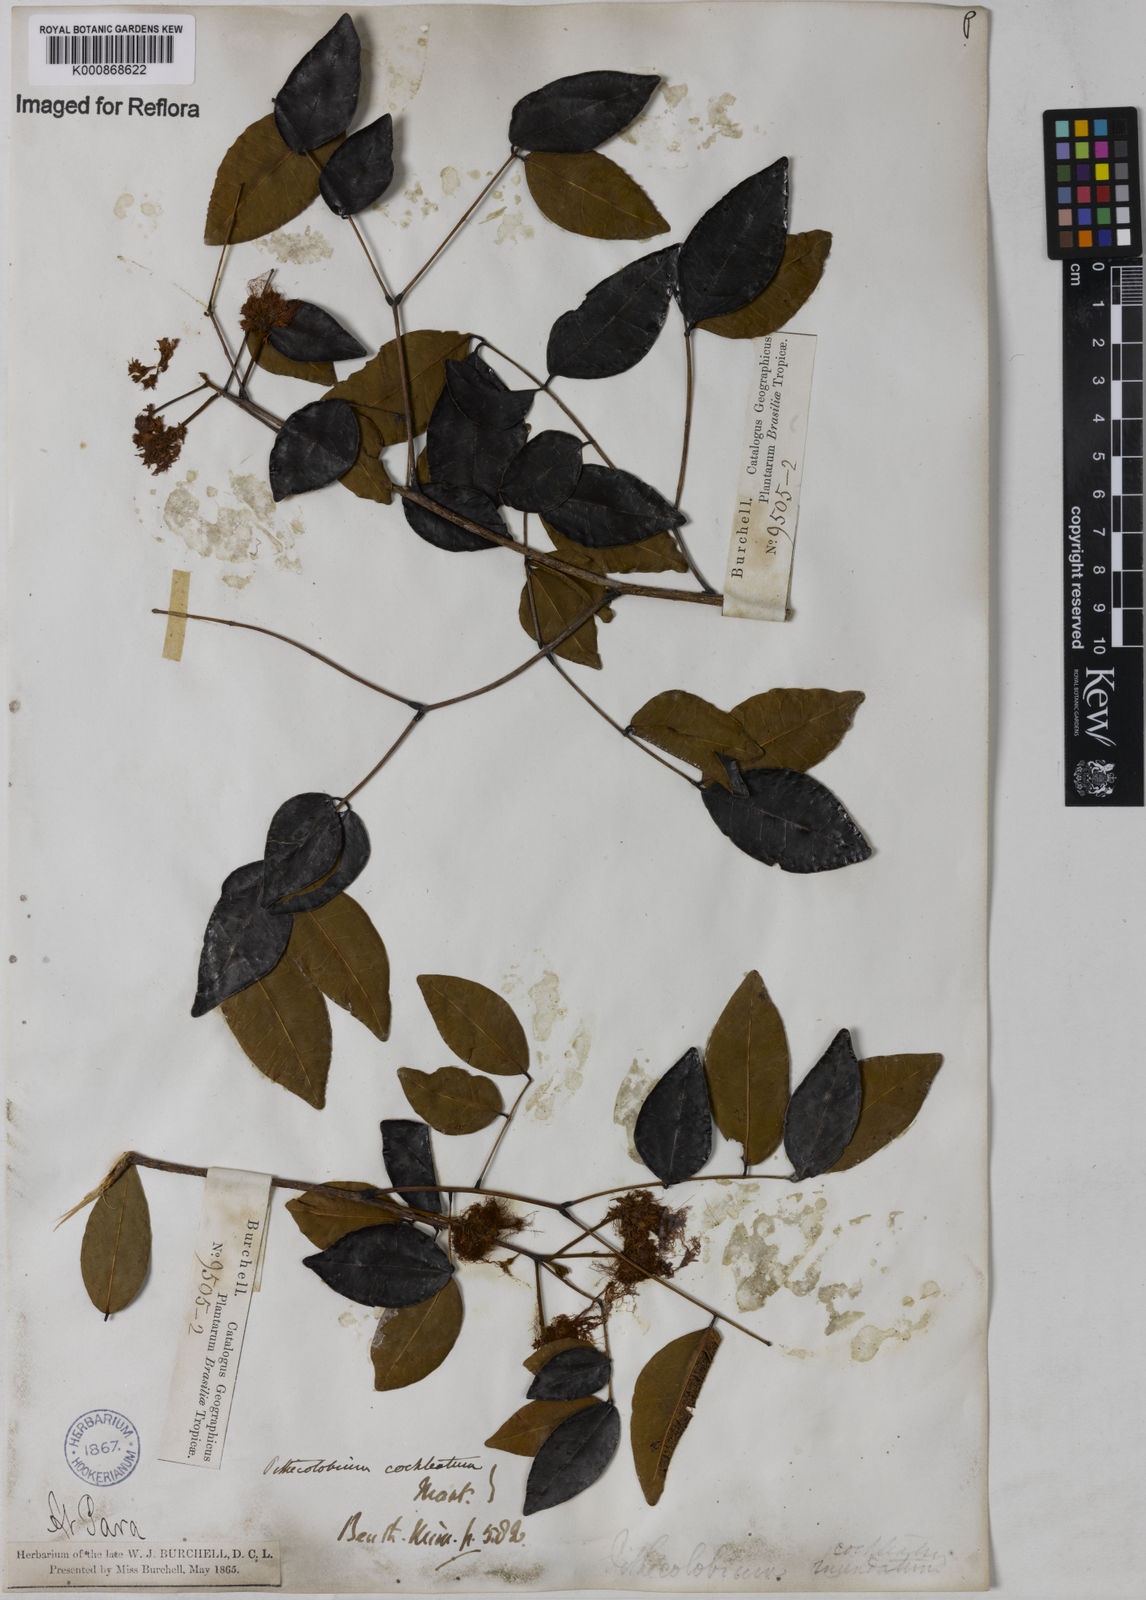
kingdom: Plantae
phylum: Tracheophyta
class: Magnoliopsida
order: Fabales
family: Fabaceae
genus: Jupunba
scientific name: Jupunba cochleata
